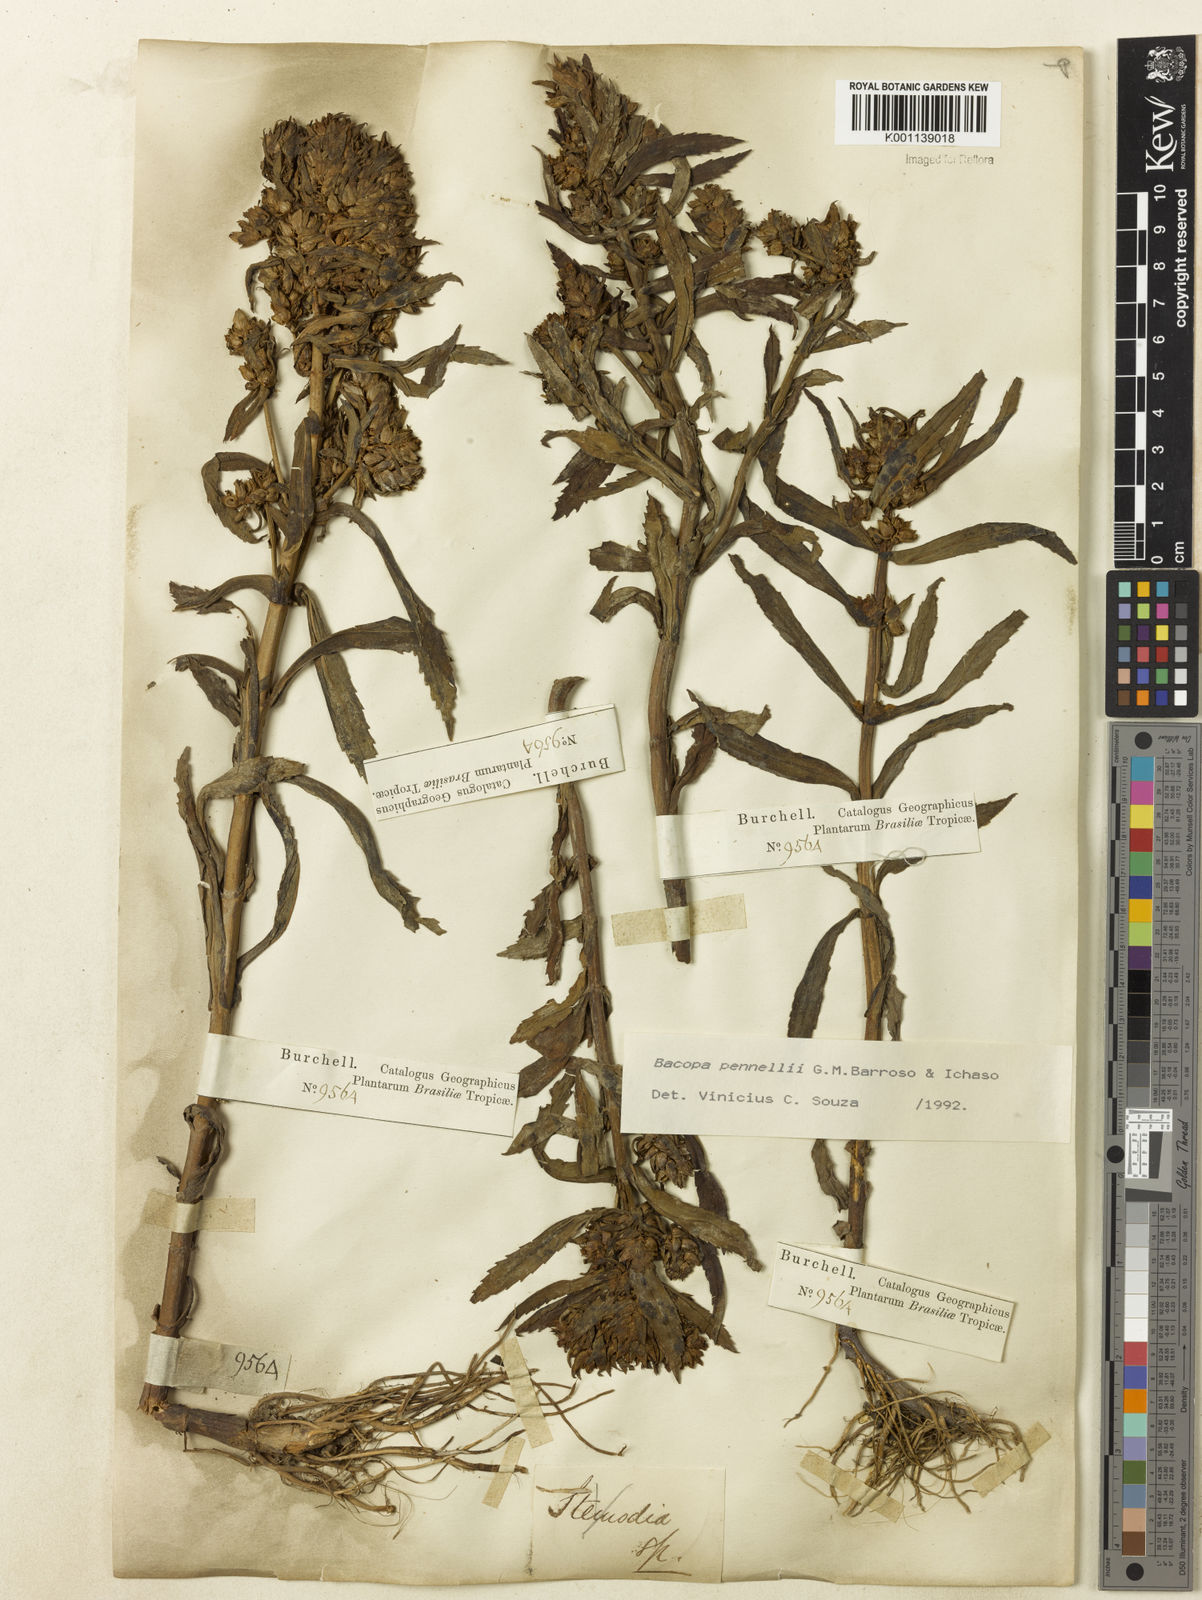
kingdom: Plantae
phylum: Tracheophyta
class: Magnoliopsida
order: Lamiales
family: Plantaginaceae
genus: Bacopa
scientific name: Bacopa pennellii
